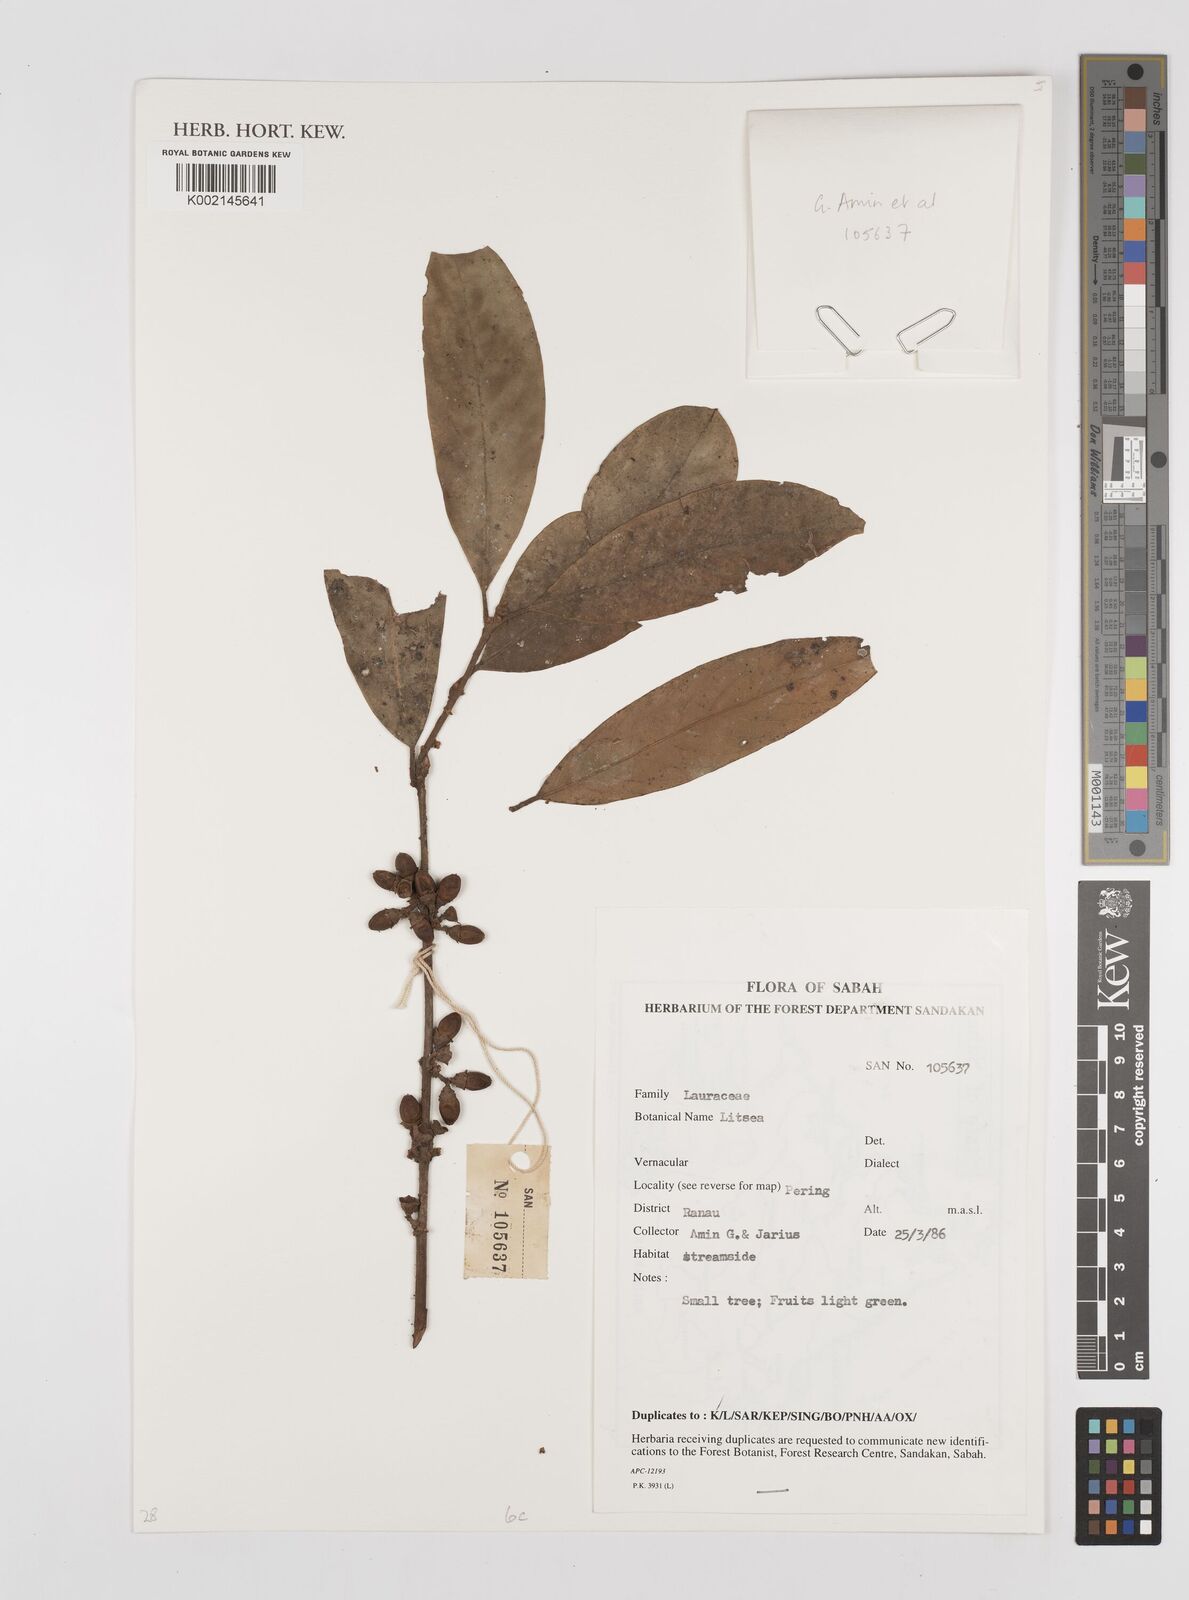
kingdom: Plantae
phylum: Tracheophyta
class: Magnoliopsida
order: Laurales
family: Lauraceae
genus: Litsea
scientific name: Litsea
